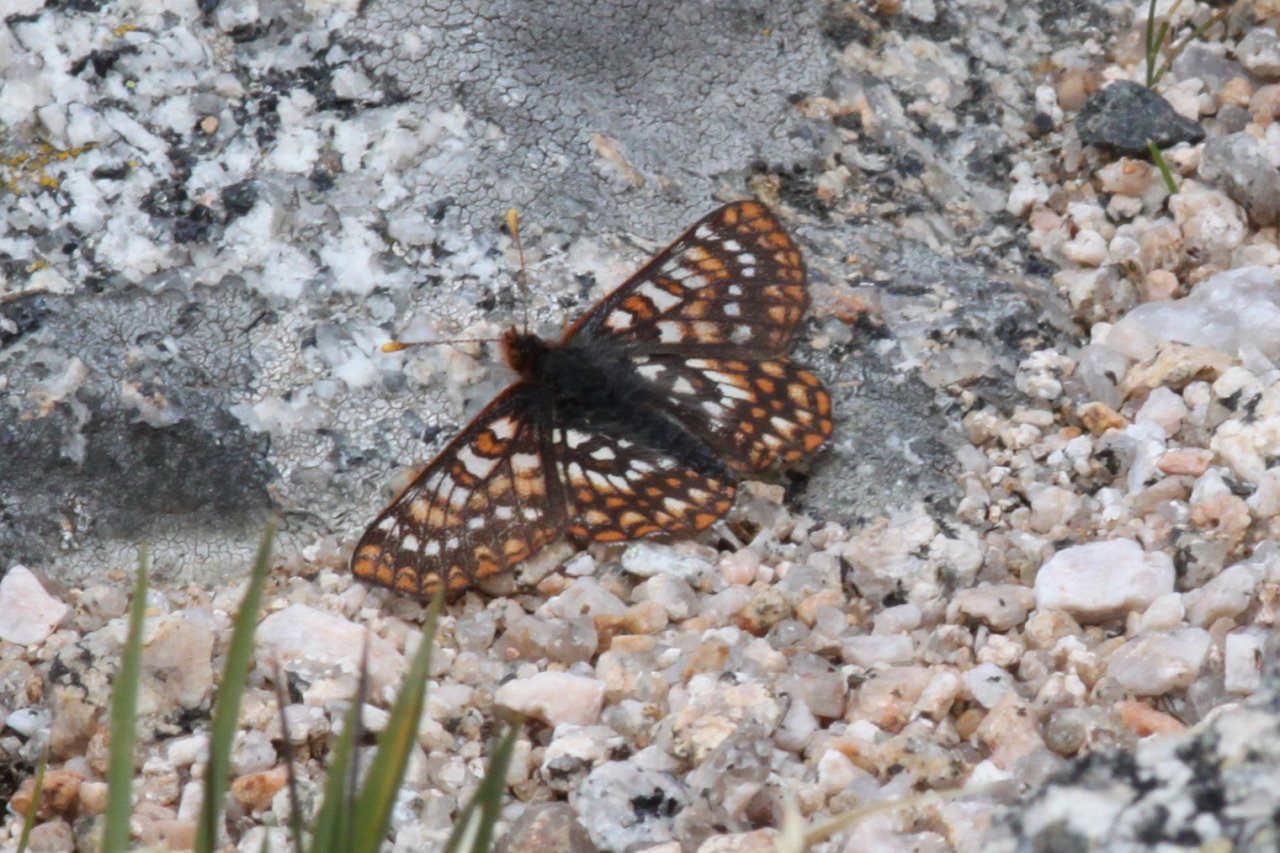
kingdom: Animalia
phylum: Arthropoda
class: Insecta
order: Lepidoptera
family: Nymphalidae
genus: Occidryas
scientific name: Occidryas chalcedona
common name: Chalcedon Checkerspot
